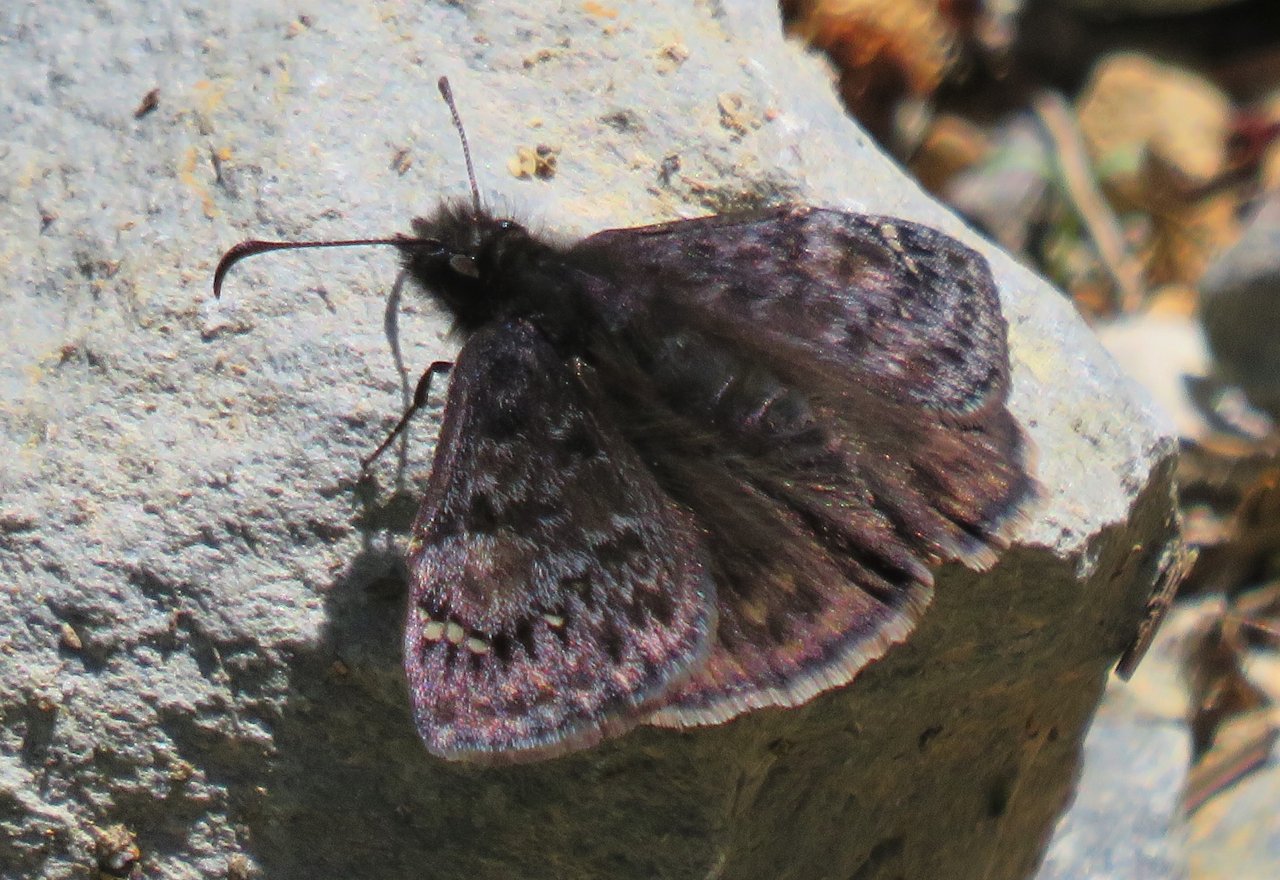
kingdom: Animalia
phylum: Arthropoda
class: Insecta
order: Lepidoptera
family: Hesperiidae
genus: Gesta
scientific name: Gesta
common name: Juvenal's Duskywing
